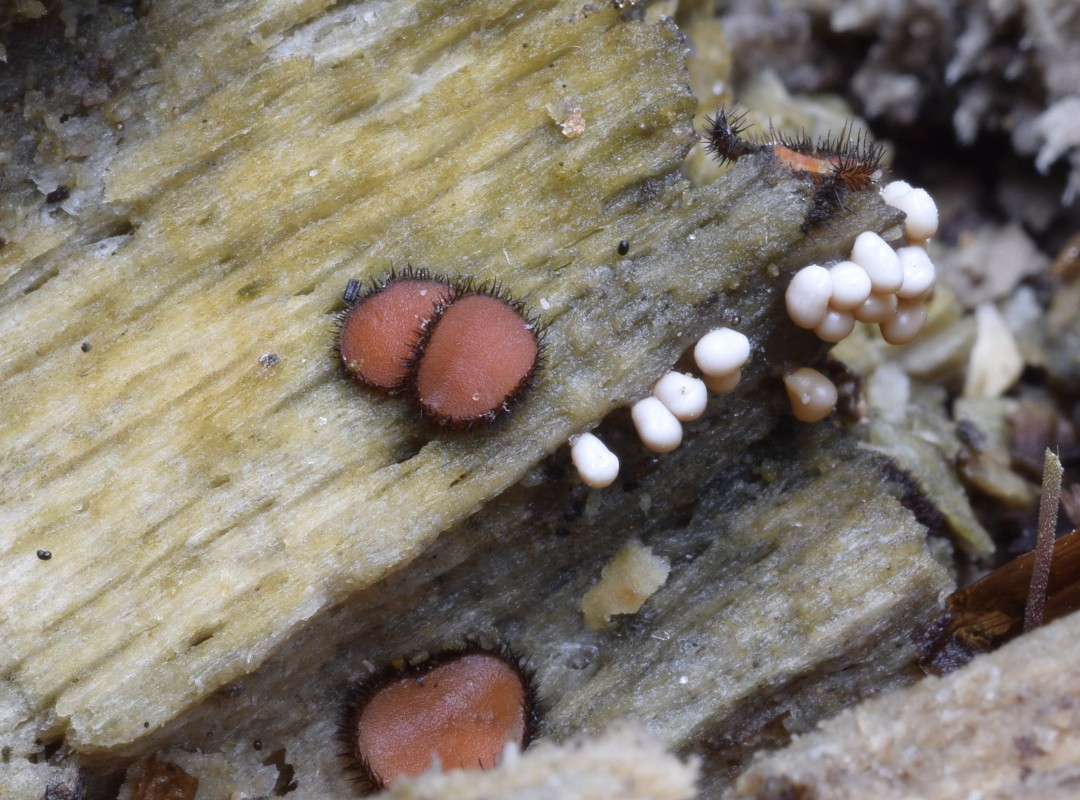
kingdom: Fungi
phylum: Ascomycota
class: Pezizomycetes
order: Pezizales
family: Pyronemataceae
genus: Scutellinia
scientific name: Scutellinia scutellata
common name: frynset skjoldbæger
